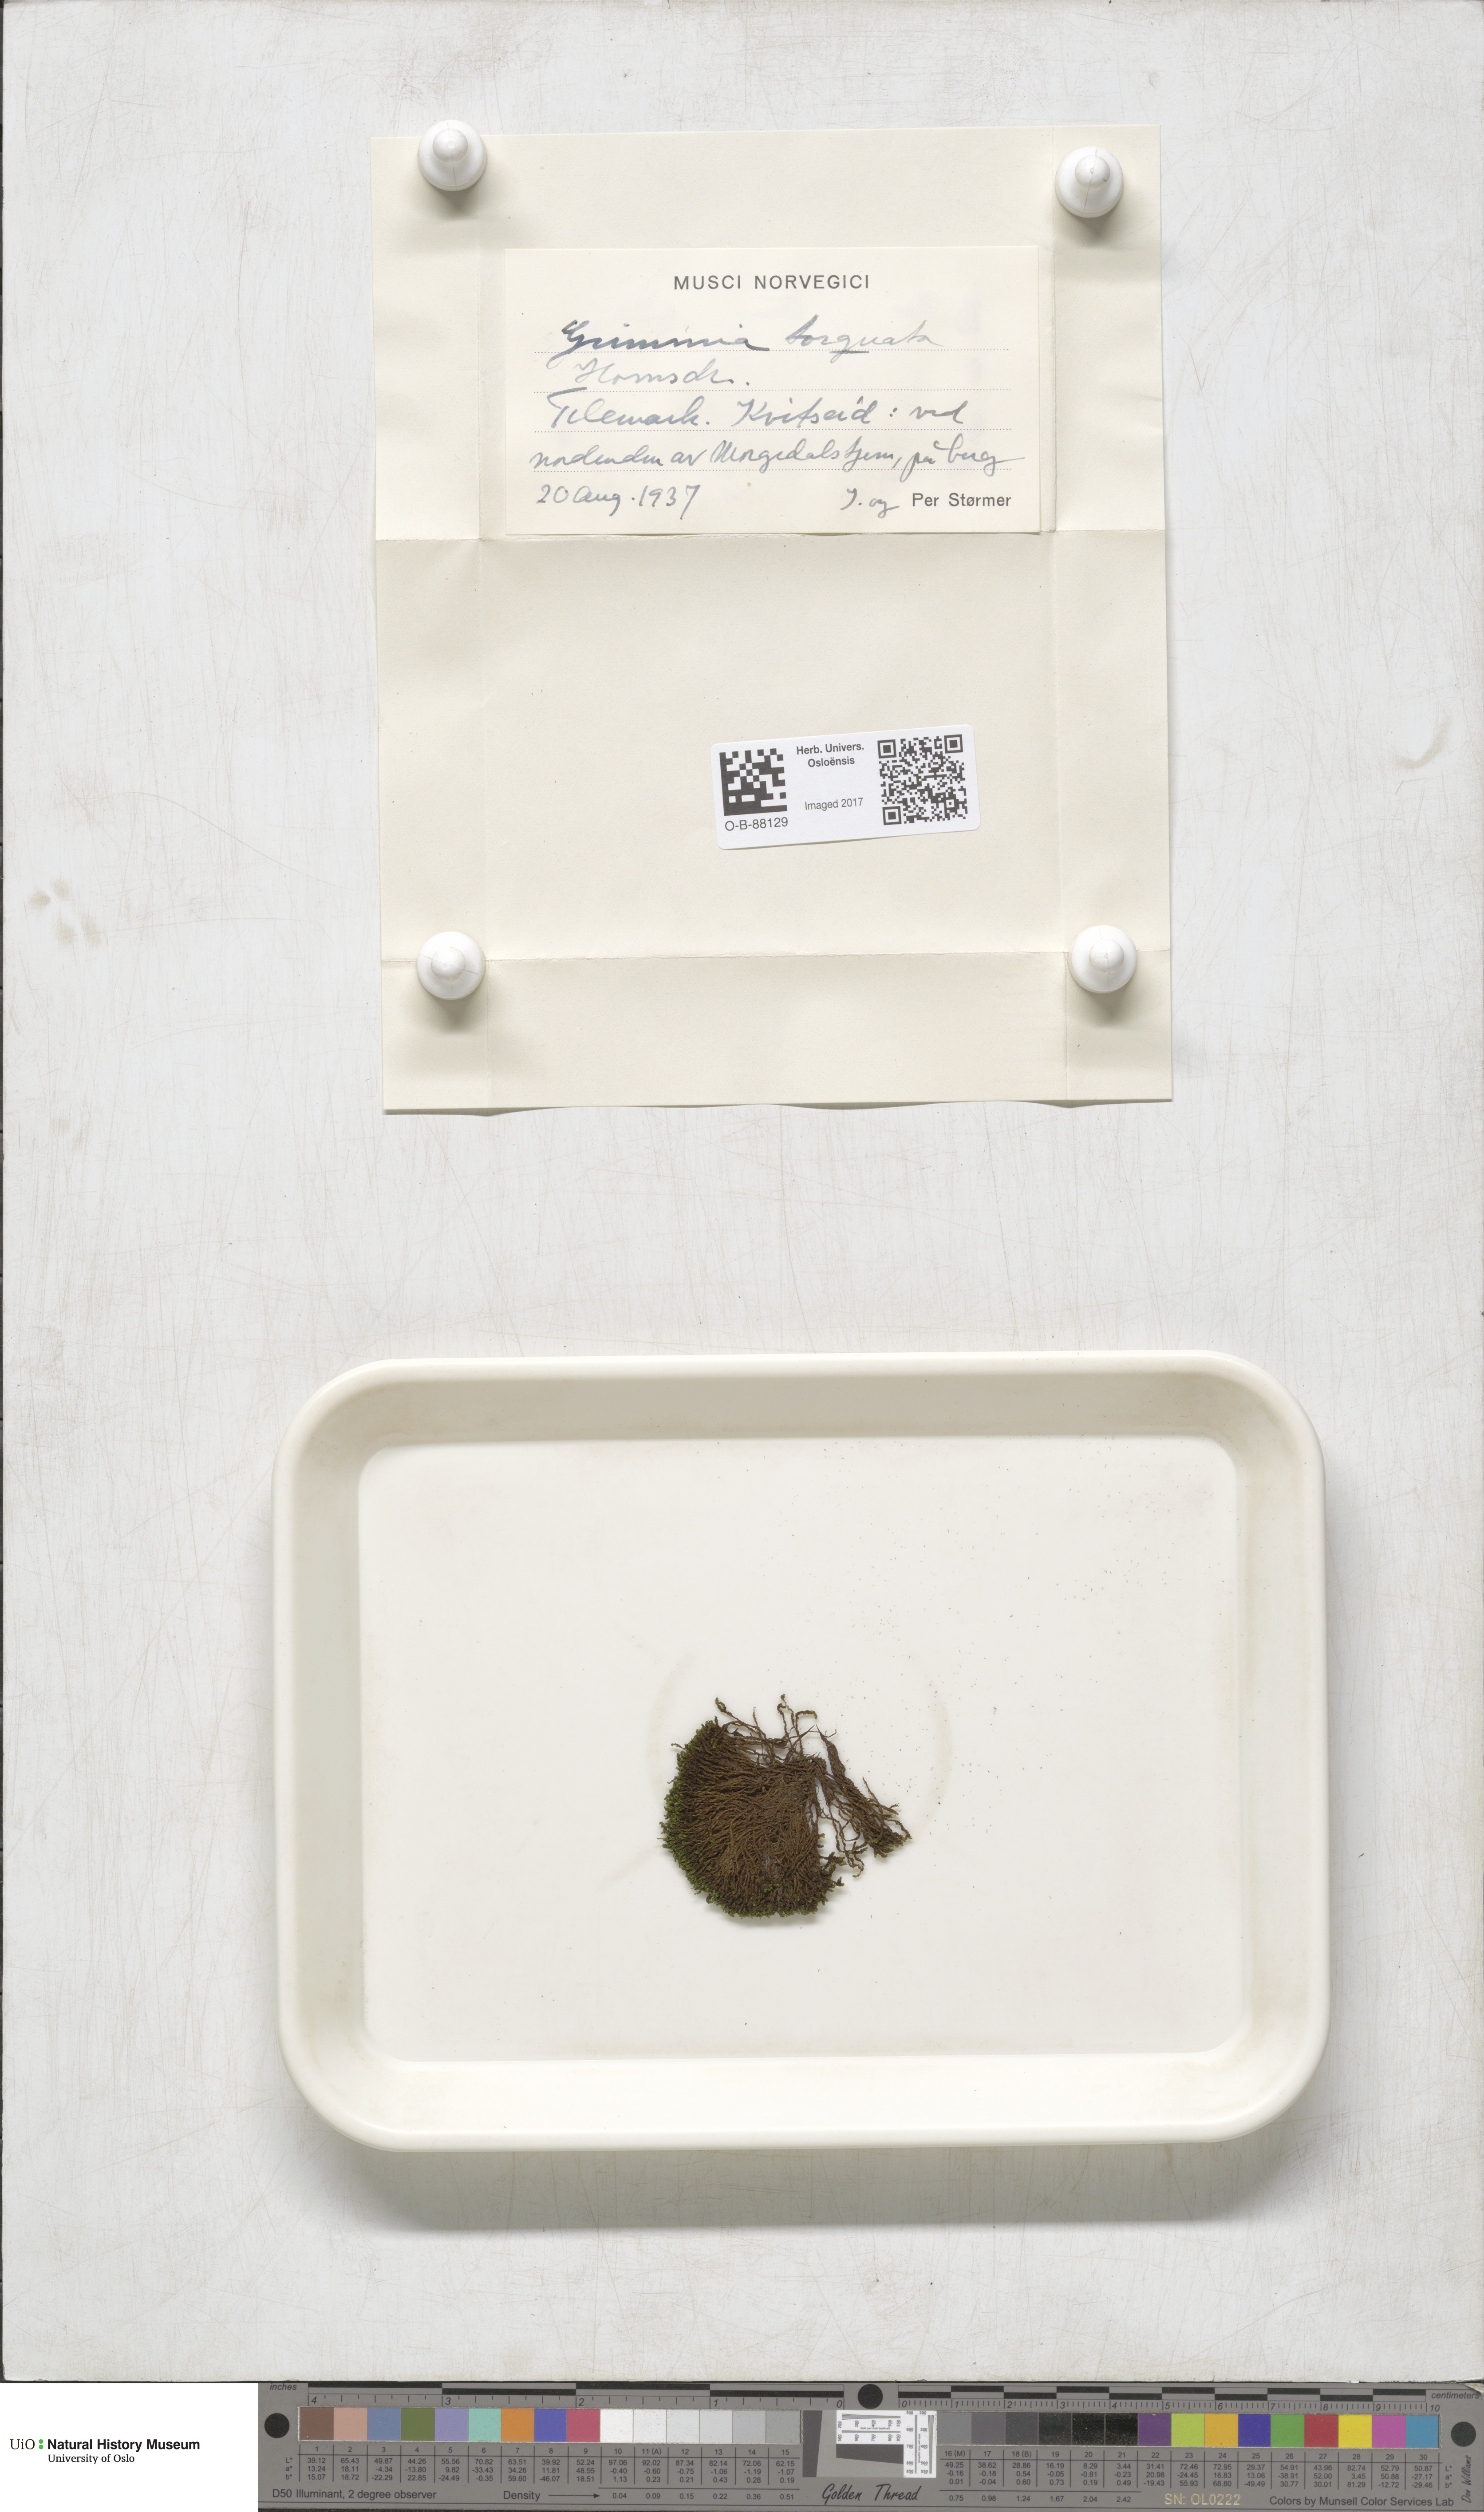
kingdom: Plantae
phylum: Bryophyta
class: Bryopsida
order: Grimmiales
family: Grimmiaceae
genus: Grimmia
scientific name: Grimmia torquata
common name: Twisted grimmia
